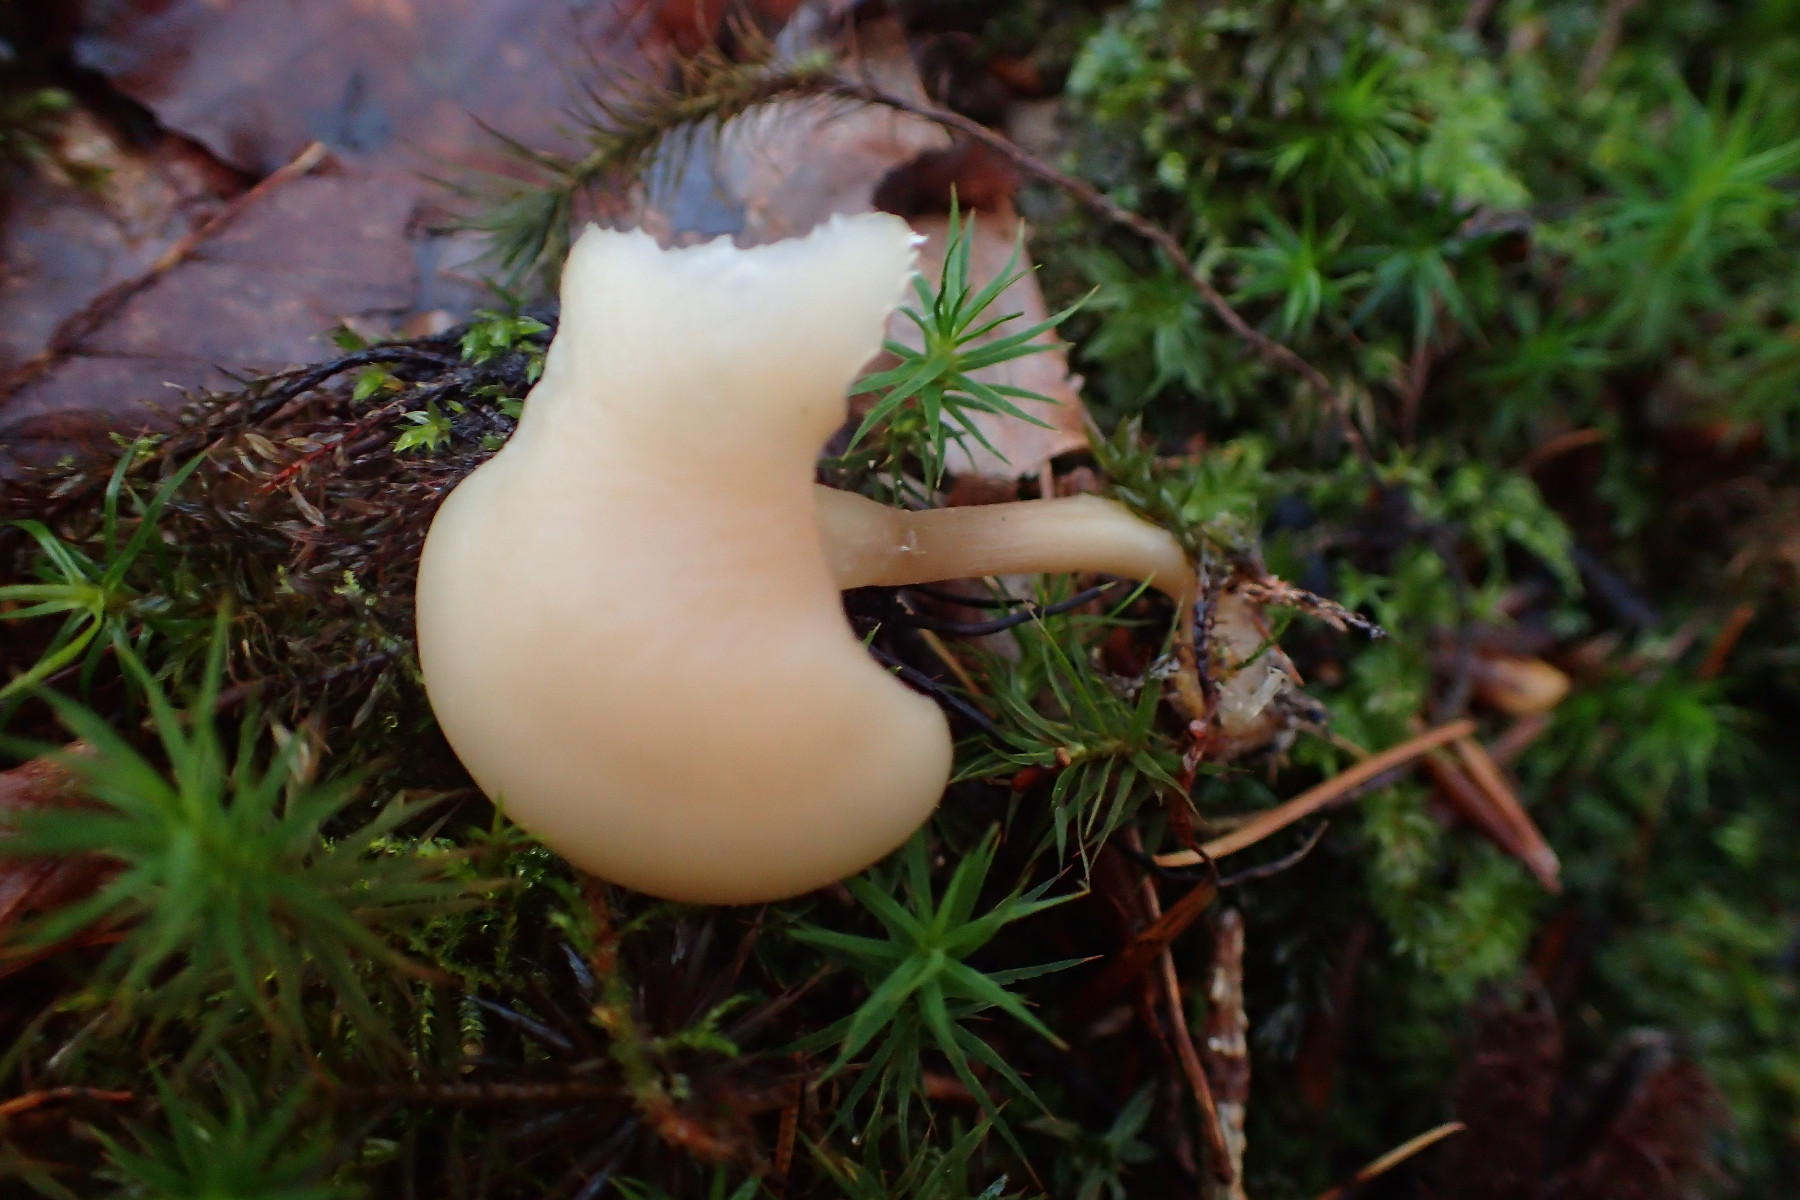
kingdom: Fungi
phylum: Basidiomycota
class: Agaricomycetes
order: Agaricales
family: Tricholomataceae
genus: Clitocybe
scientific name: Clitocybe fragrans
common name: vellugtende tragthat
